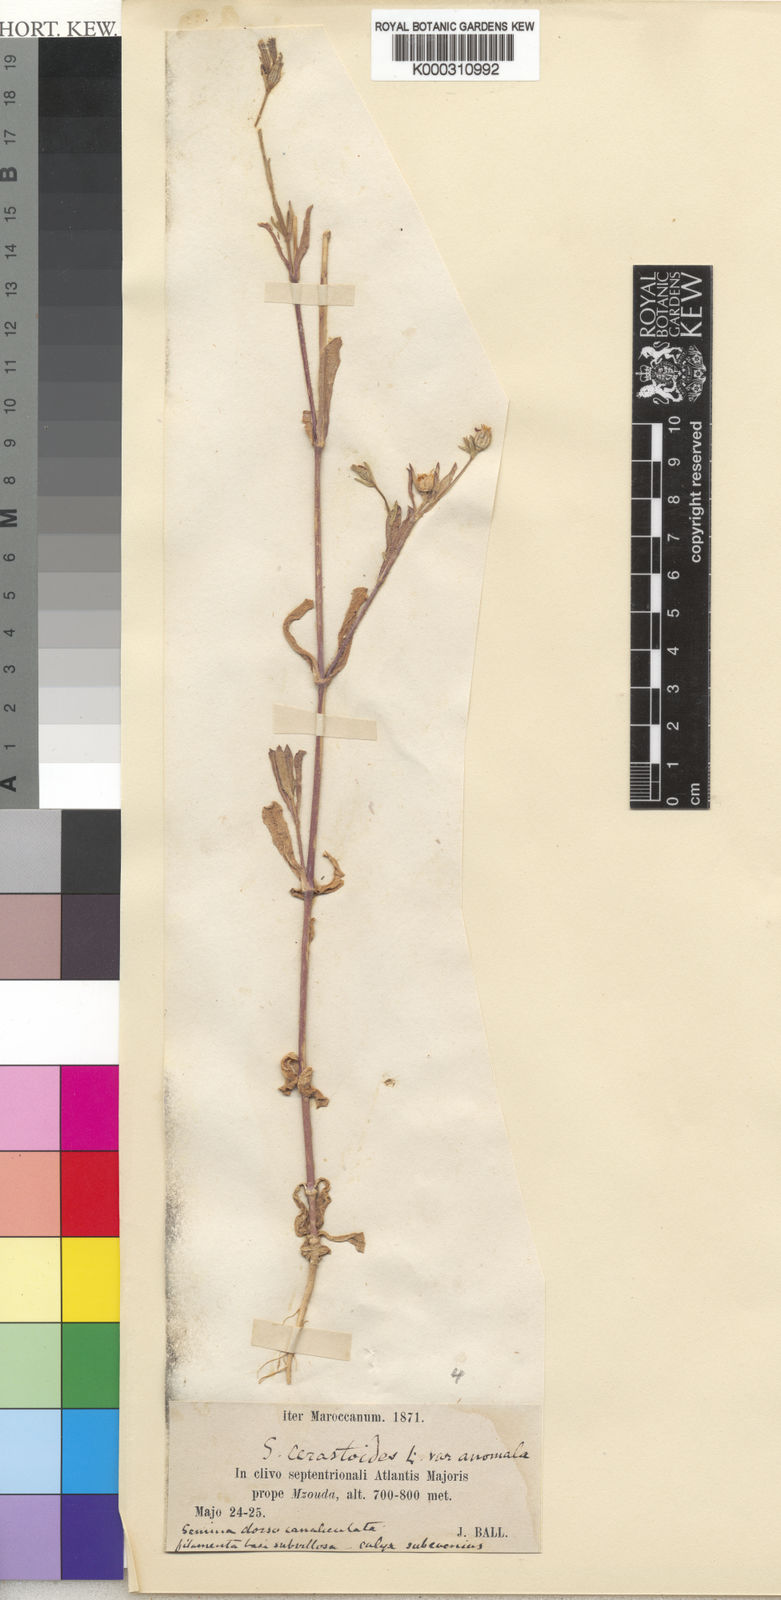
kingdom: Plantae
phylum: Tracheophyta
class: Magnoliopsida
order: Caryophyllales
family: Caryophyllaceae
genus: Silene
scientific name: Silene gallica
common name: Small-flowered catchfly
